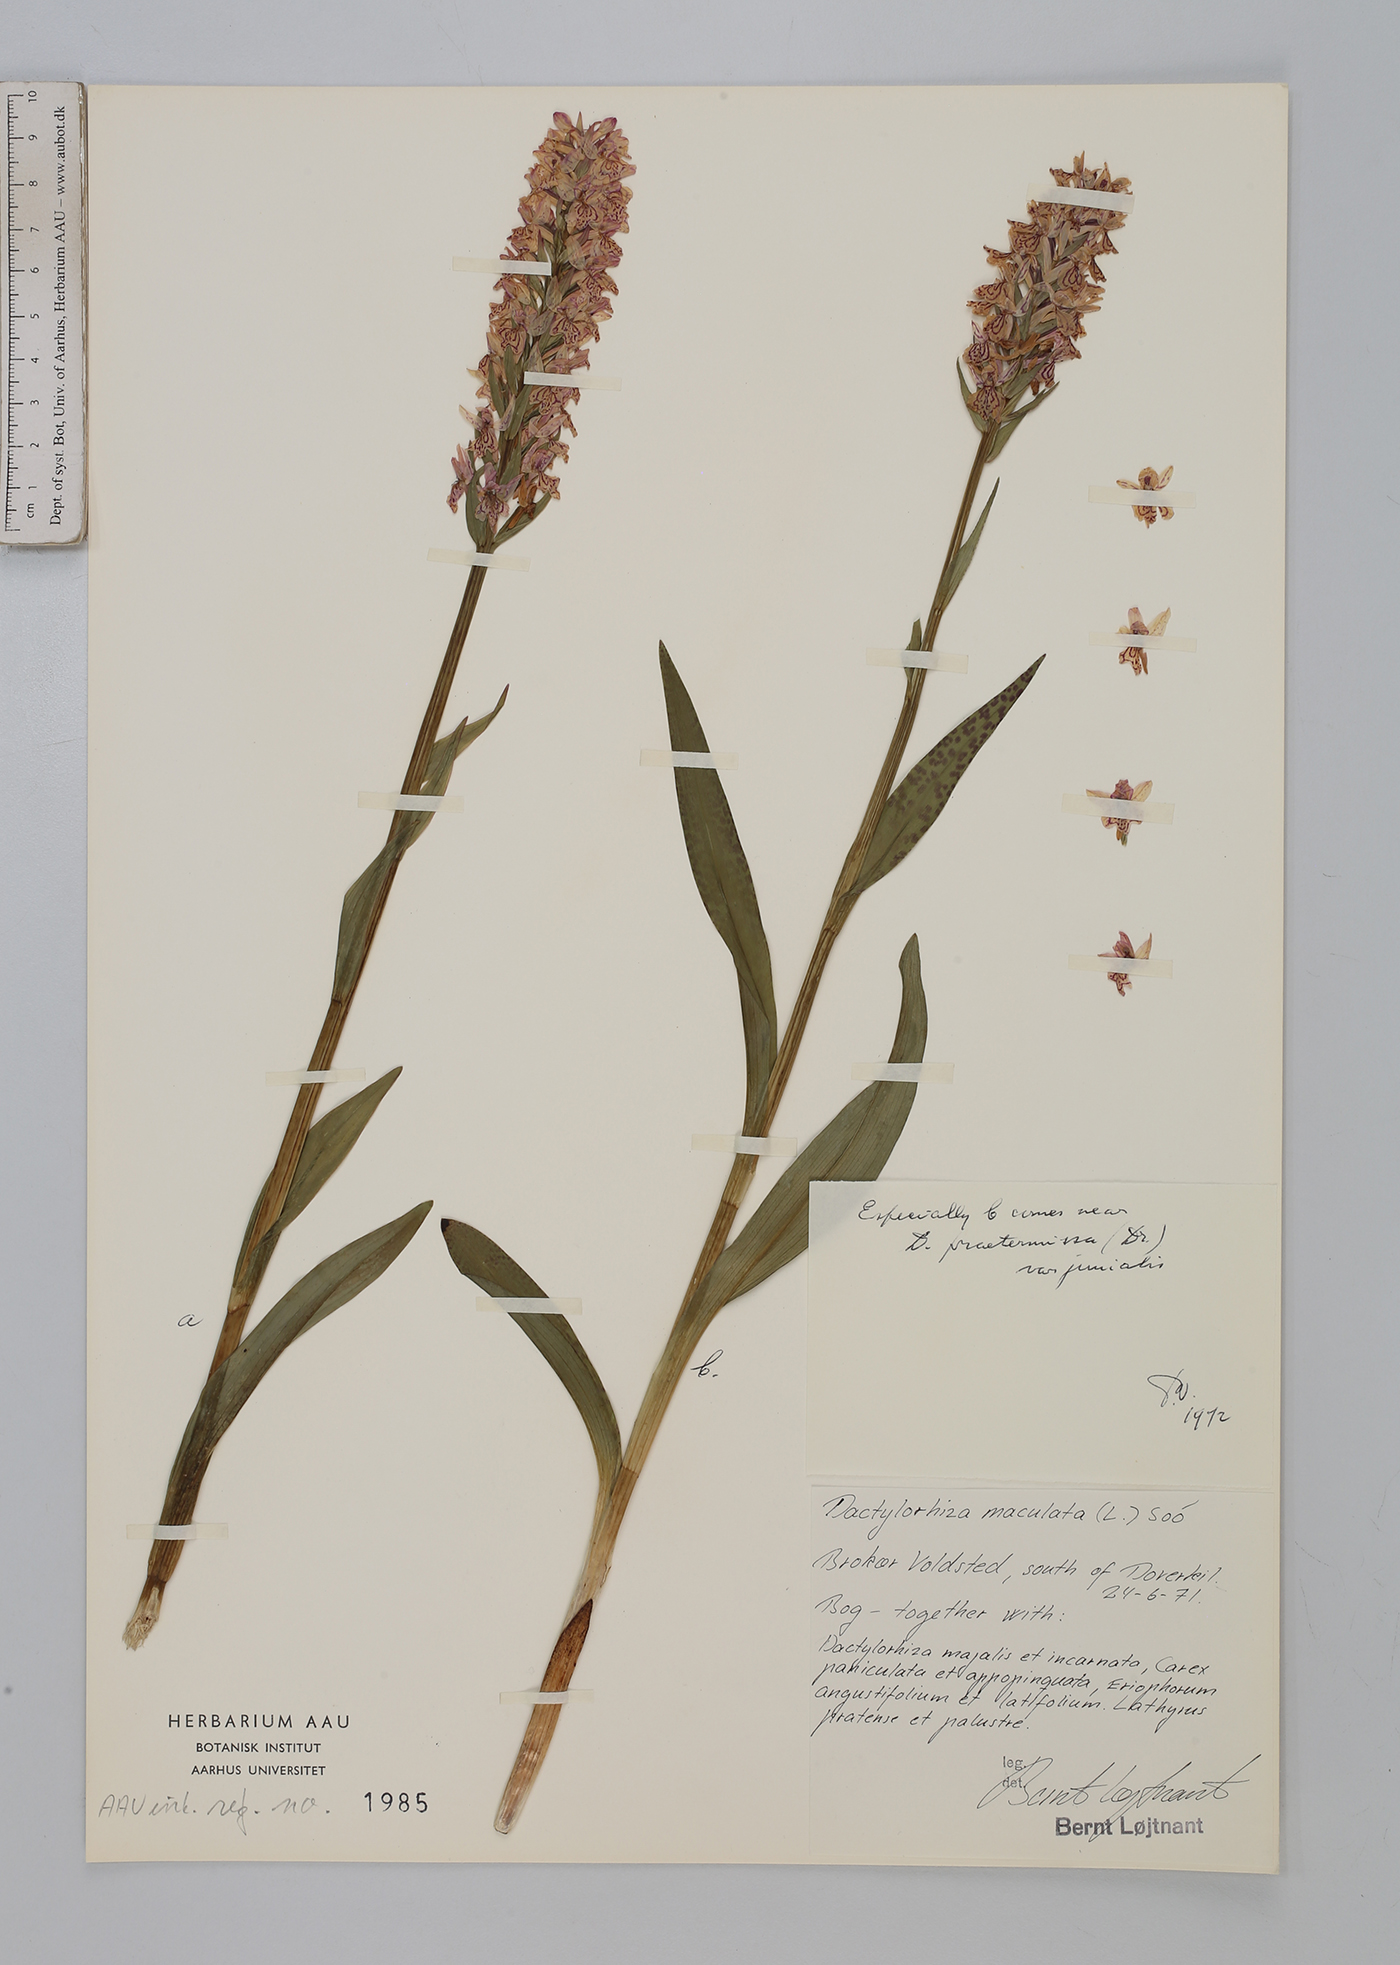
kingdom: Plantae
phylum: Tracheophyta
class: Liliopsida
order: Asparagales
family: Orchidaceae
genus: Dactylorhiza
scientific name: Dactylorhiza maculata
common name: Heath spotted-orchid
